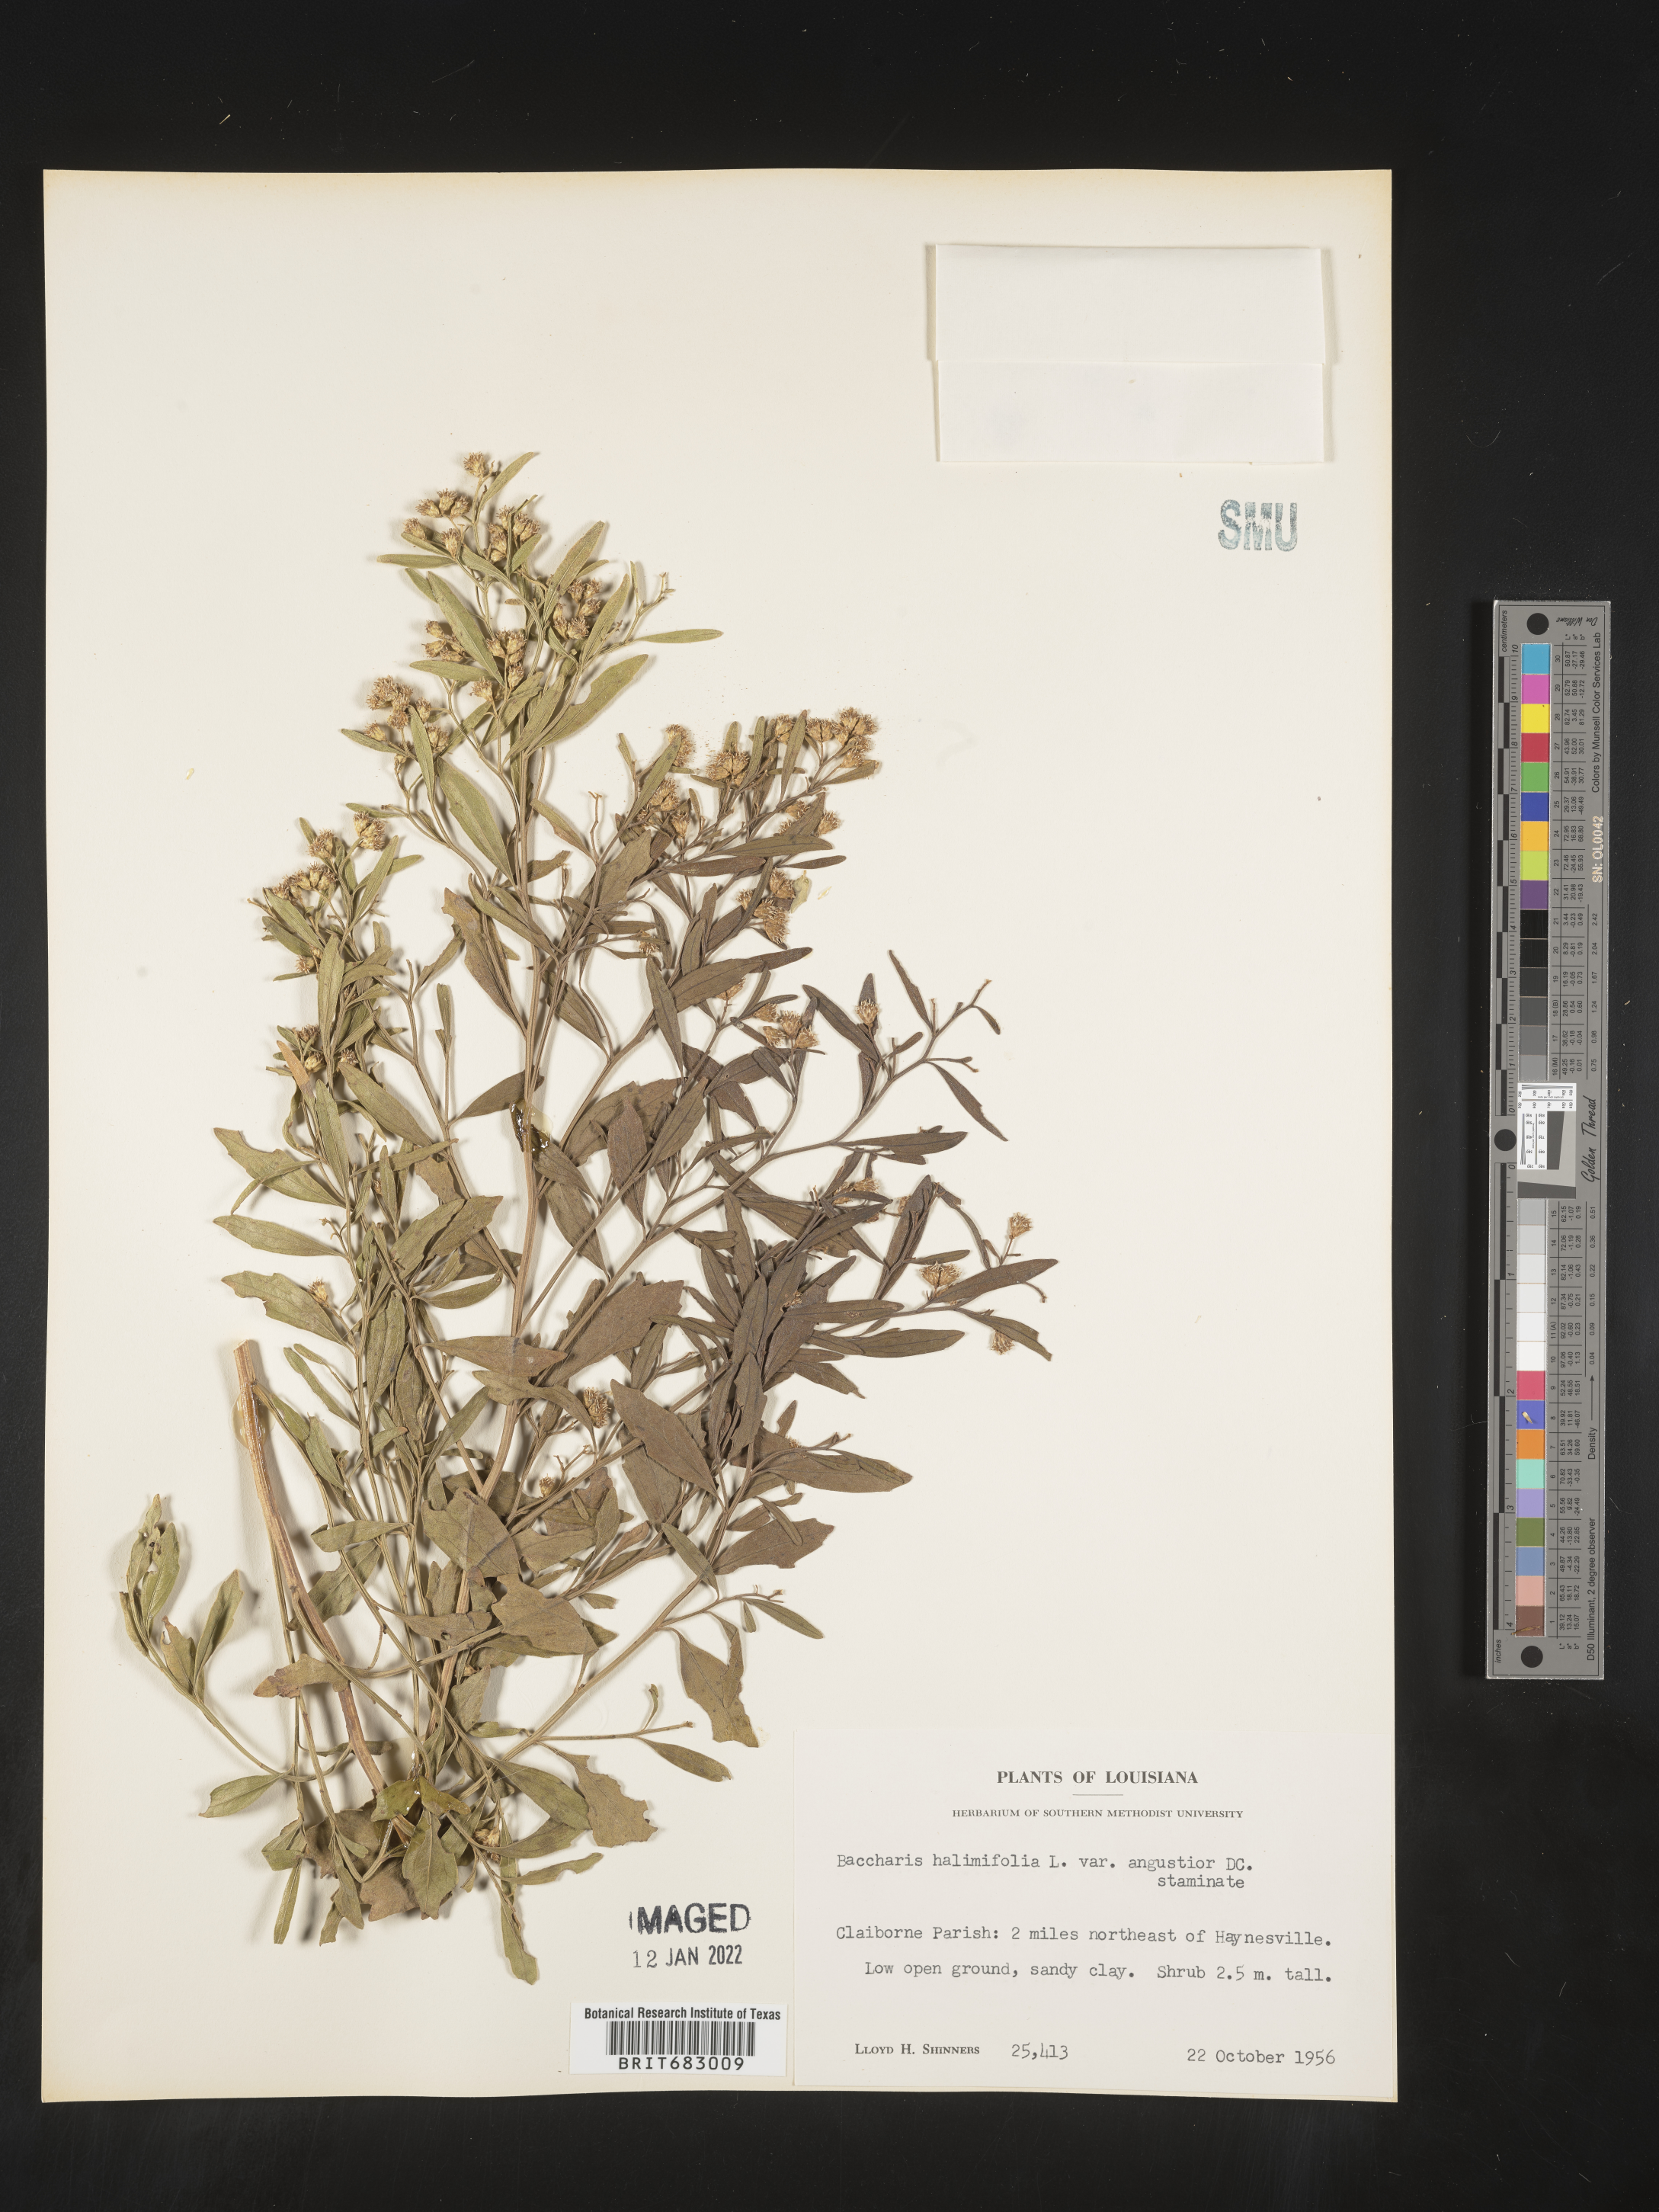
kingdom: Plantae
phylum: Tracheophyta
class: Magnoliopsida
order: Asterales
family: Asteraceae
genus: Nidorella
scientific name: Nidorella ivifolia
